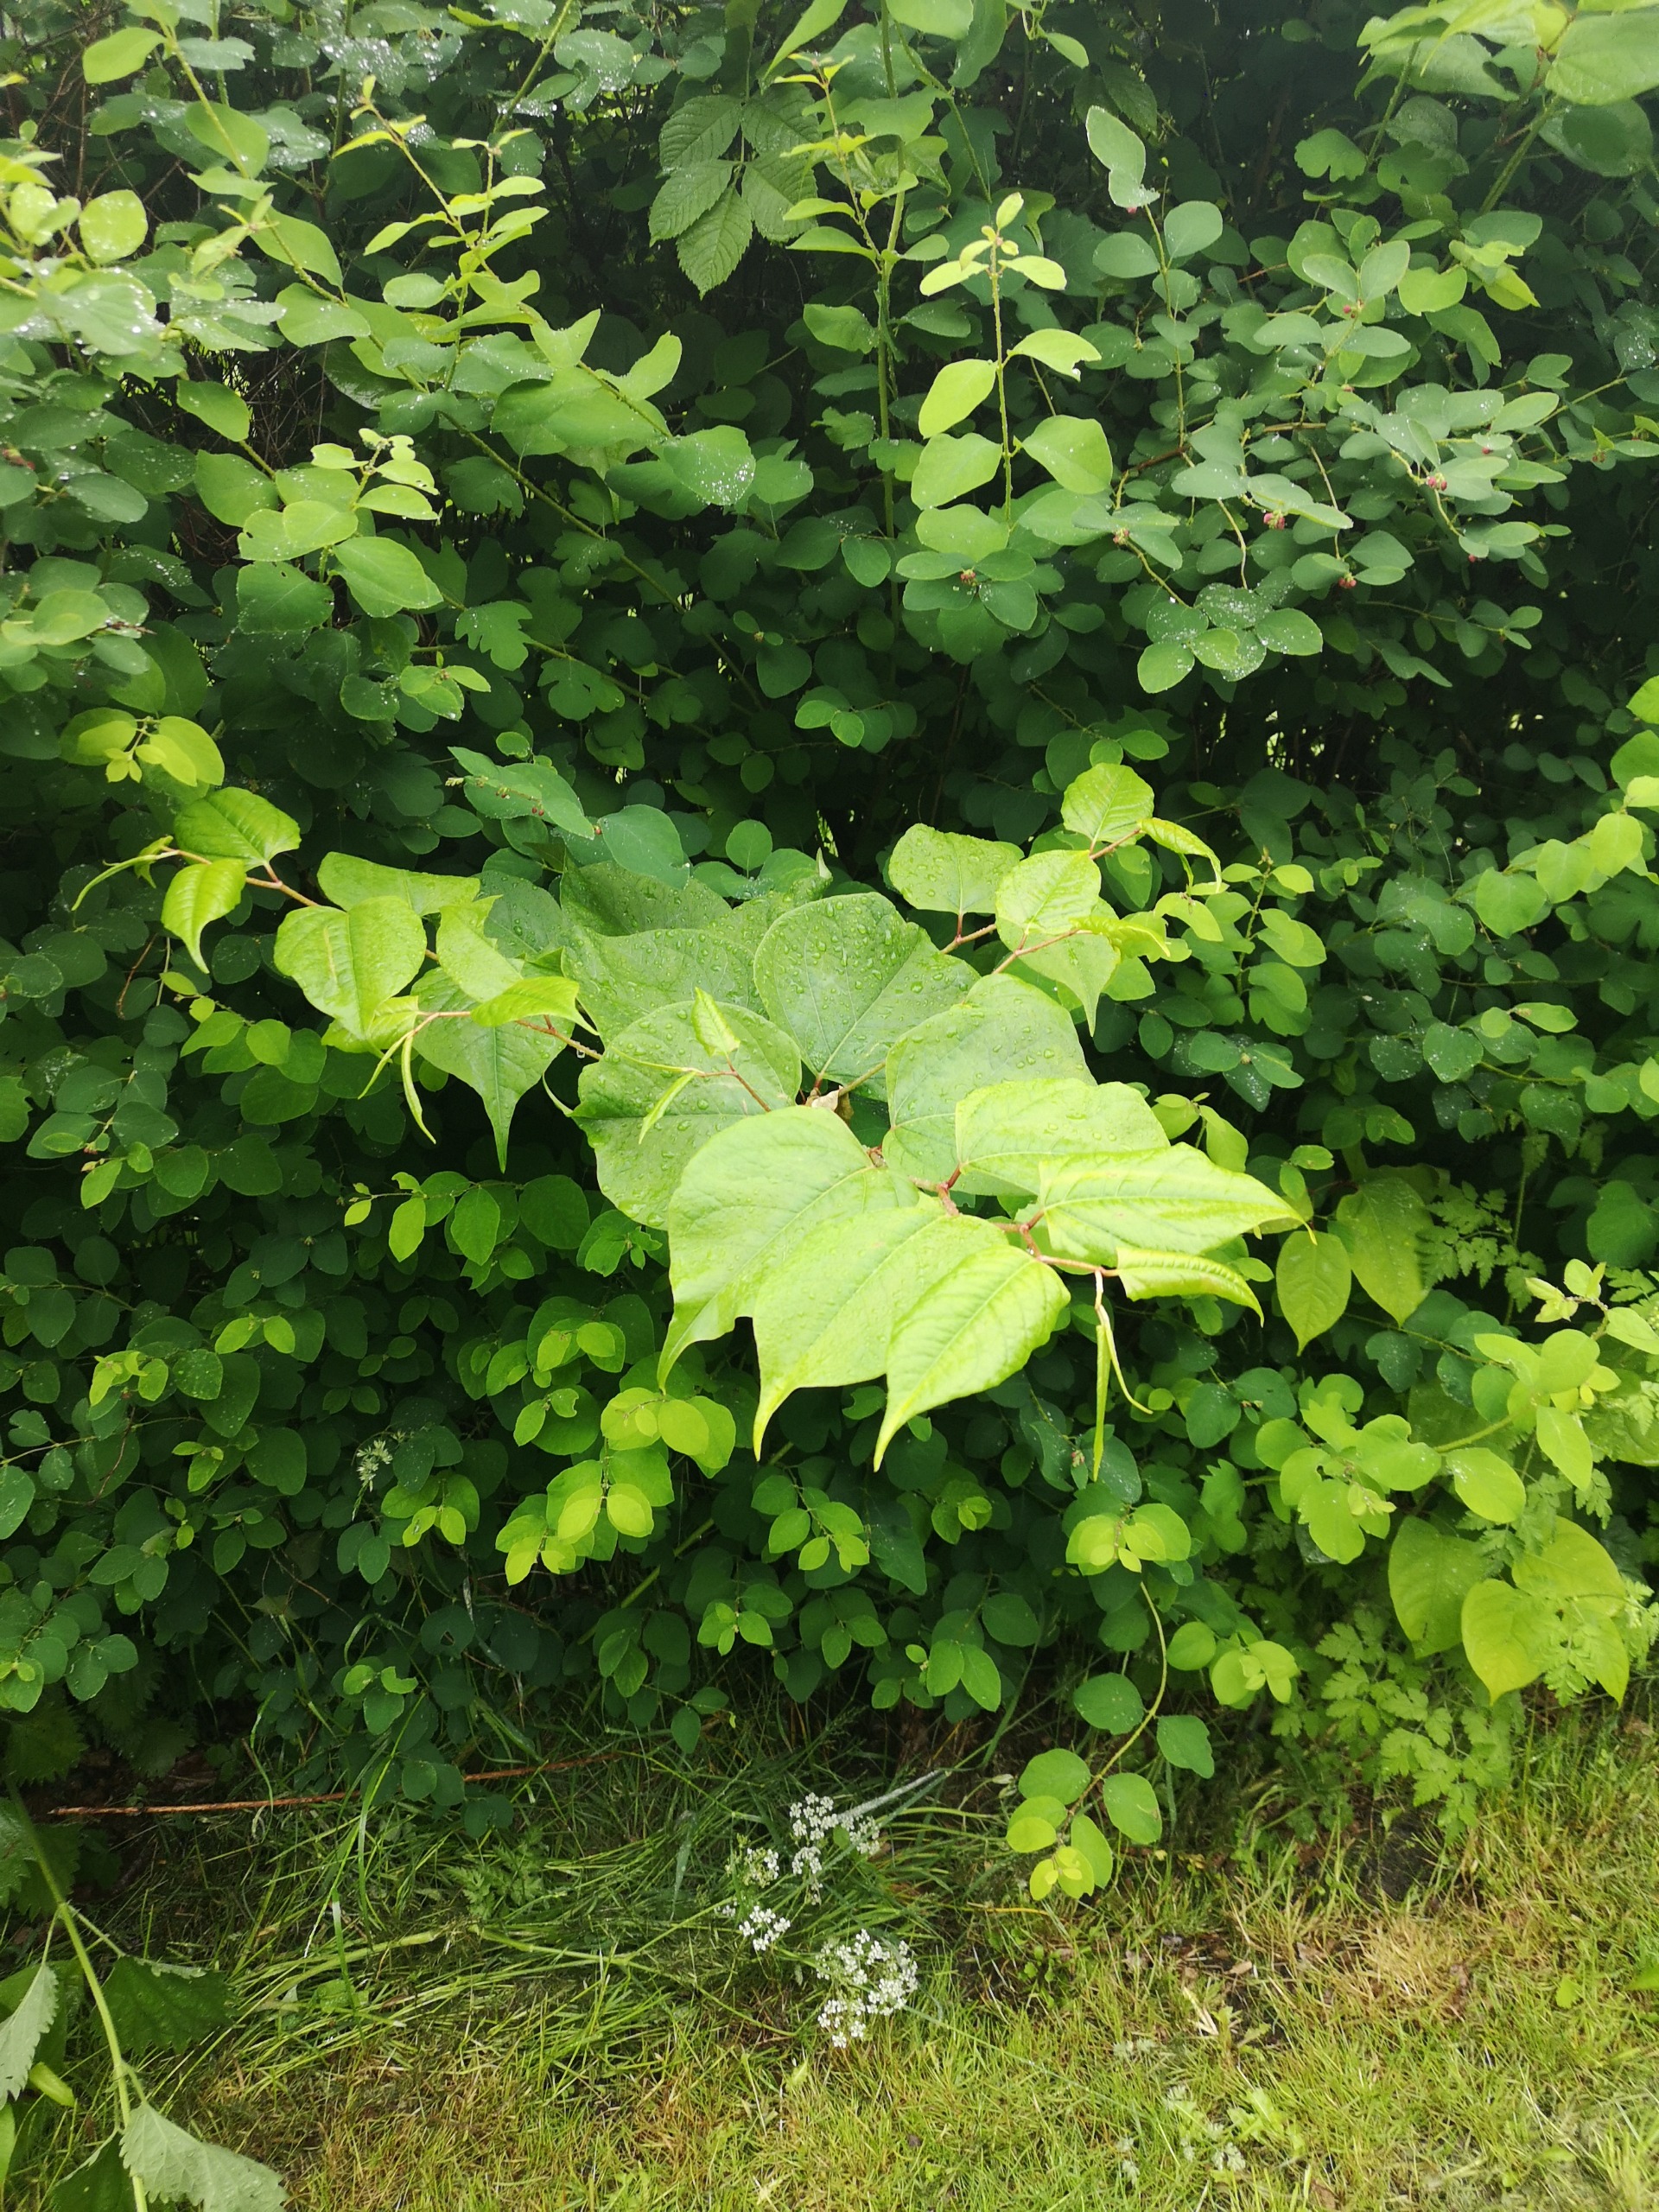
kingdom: Plantae
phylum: Tracheophyta
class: Magnoliopsida
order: Caryophyllales
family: Polygonaceae
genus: Reynoutria
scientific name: Reynoutria japonica
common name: Japan-pileurt
